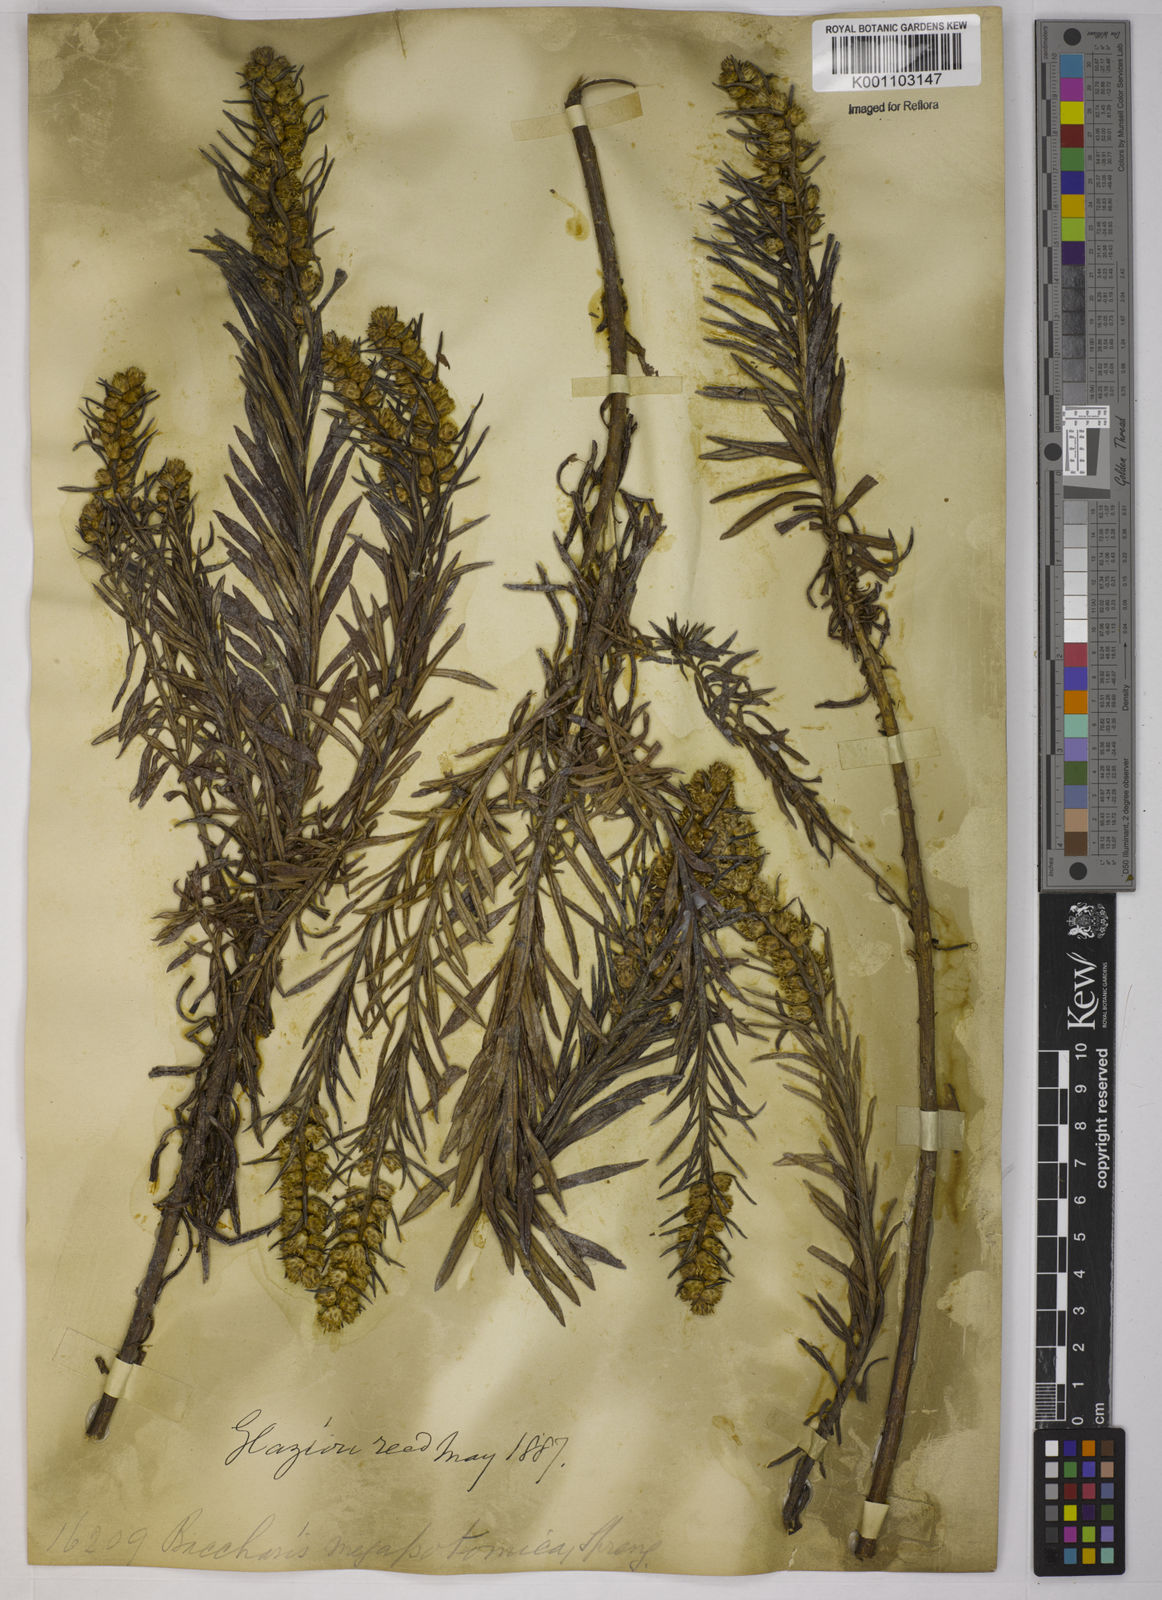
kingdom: Plantae
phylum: Tracheophyta
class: Magnoliopsida
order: Asterales
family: Asteraceae
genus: Baccharis
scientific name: Baccharis megapotamica
